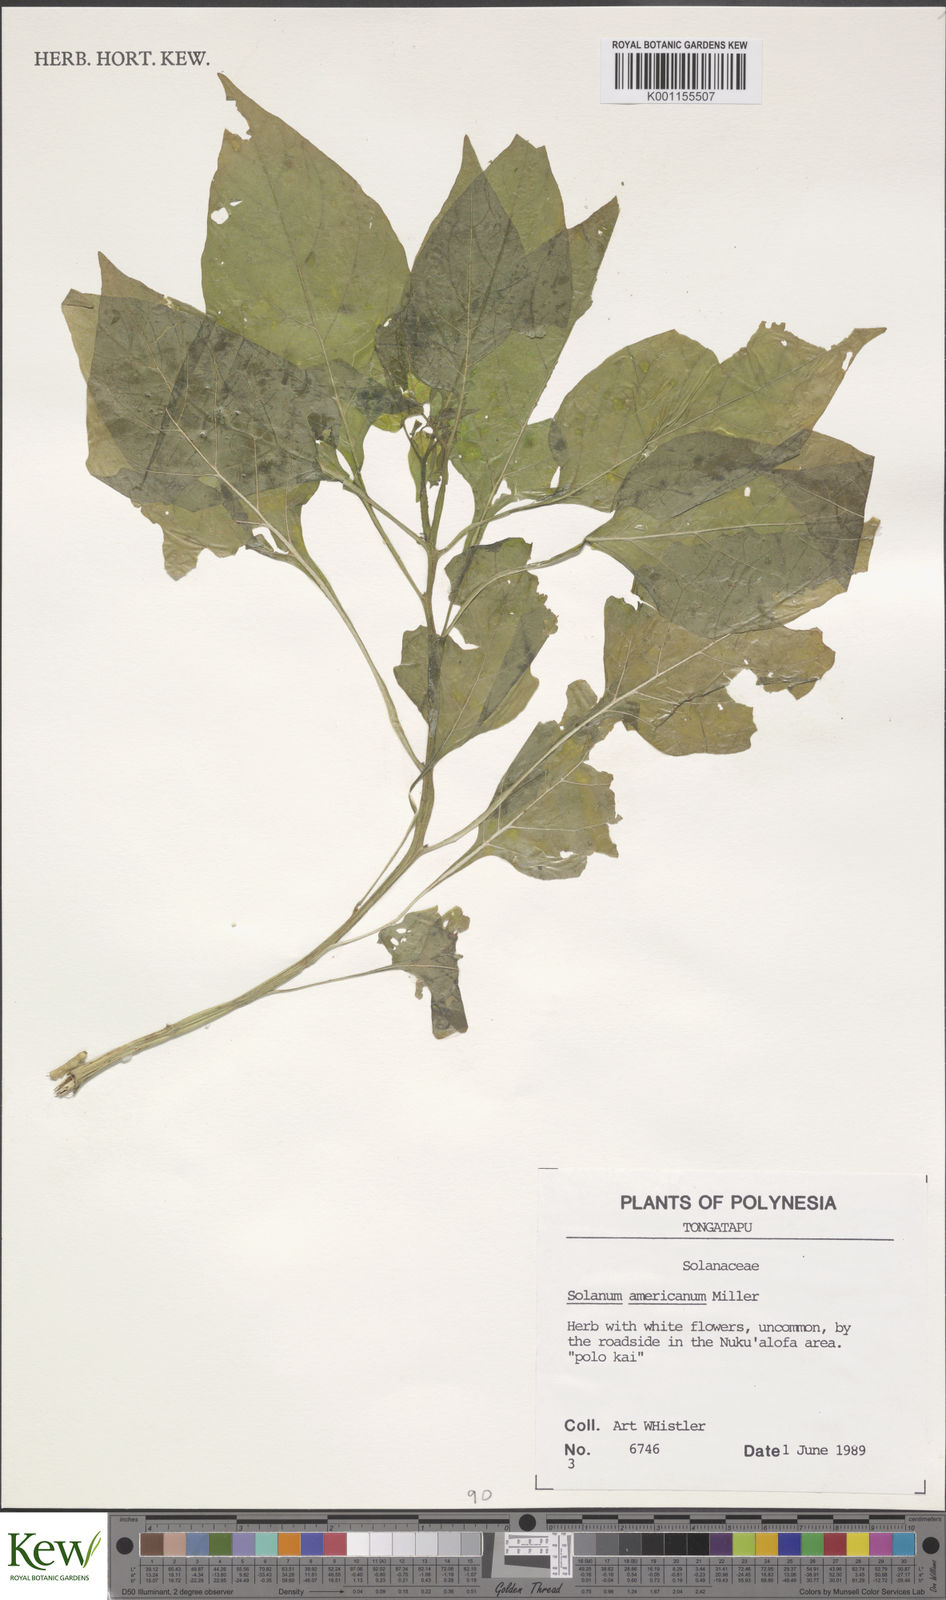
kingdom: Plantae
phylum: Tracheophyta
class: Magnoliopsida
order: Solanales
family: Solanaceae
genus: Solanum
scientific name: Solanum americanum
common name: American black nightshade
